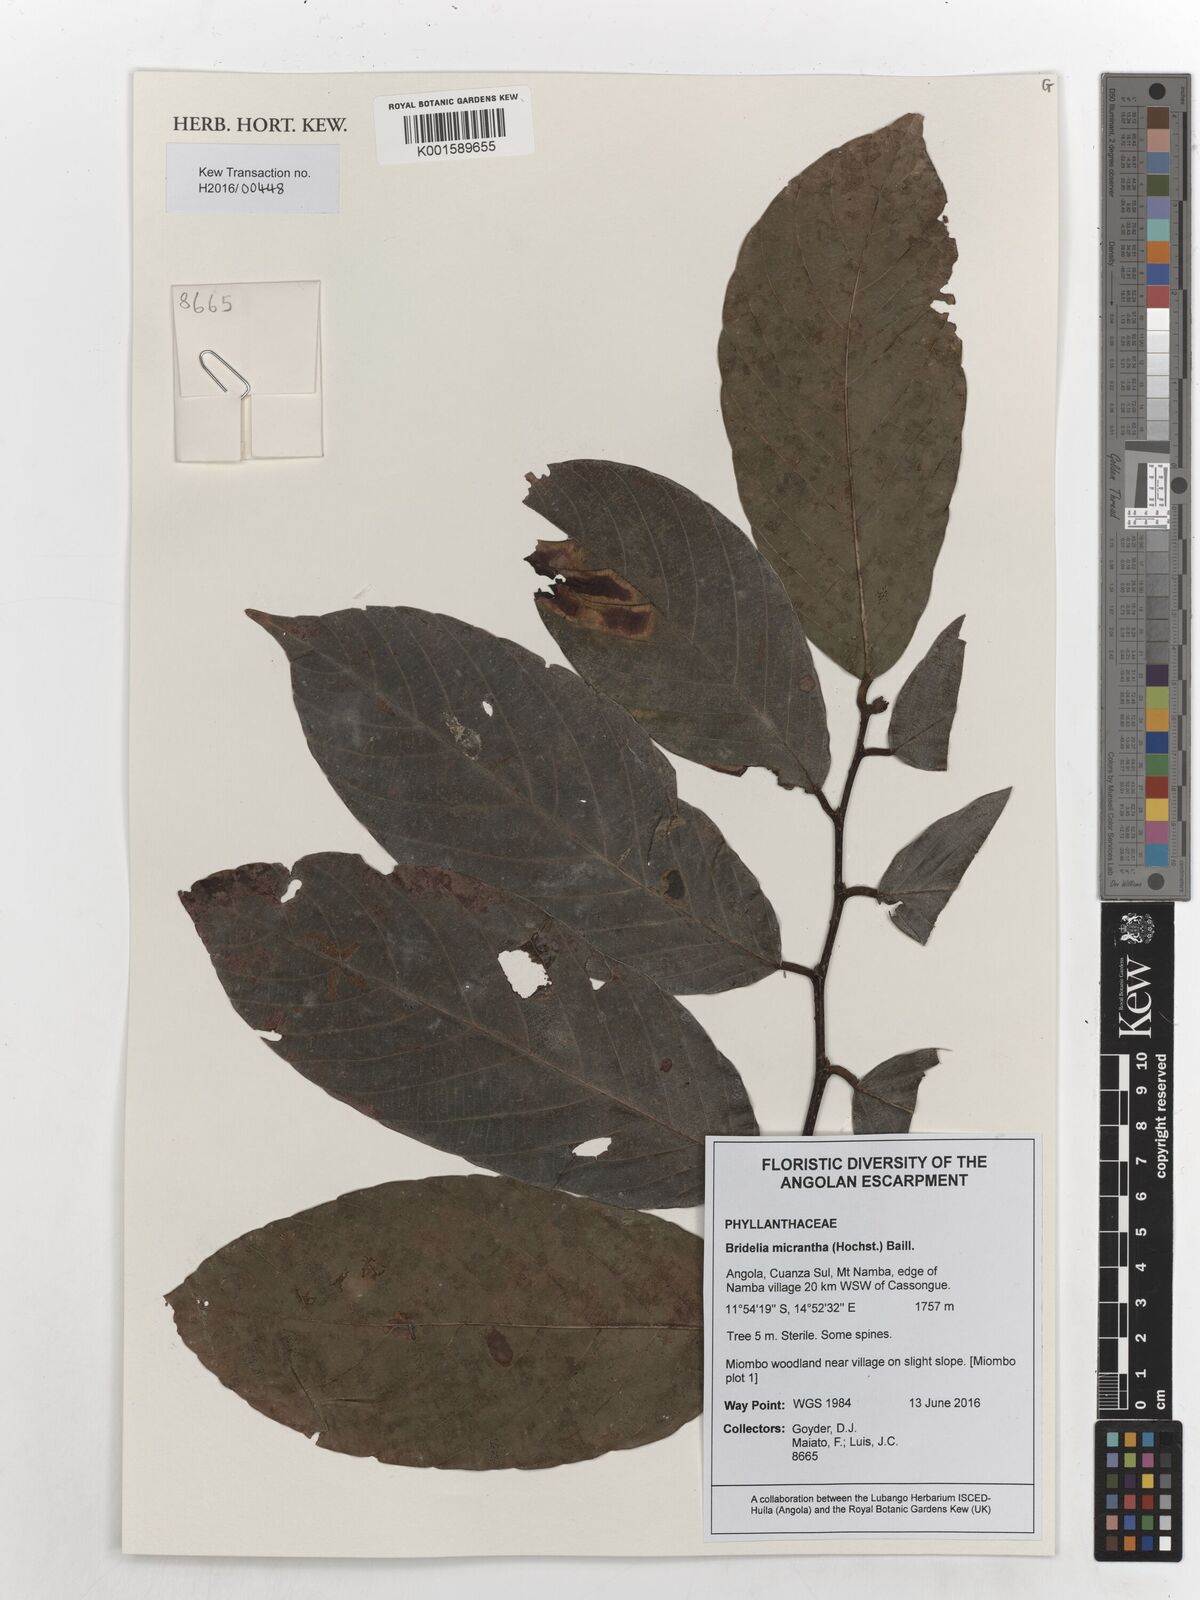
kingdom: Plantae
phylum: Tracheophyta
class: Magnoliopsida
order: Malpighiales
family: Phyllanthaceae
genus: Bridelia
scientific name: Bridelia micrantha
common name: Bridelia
